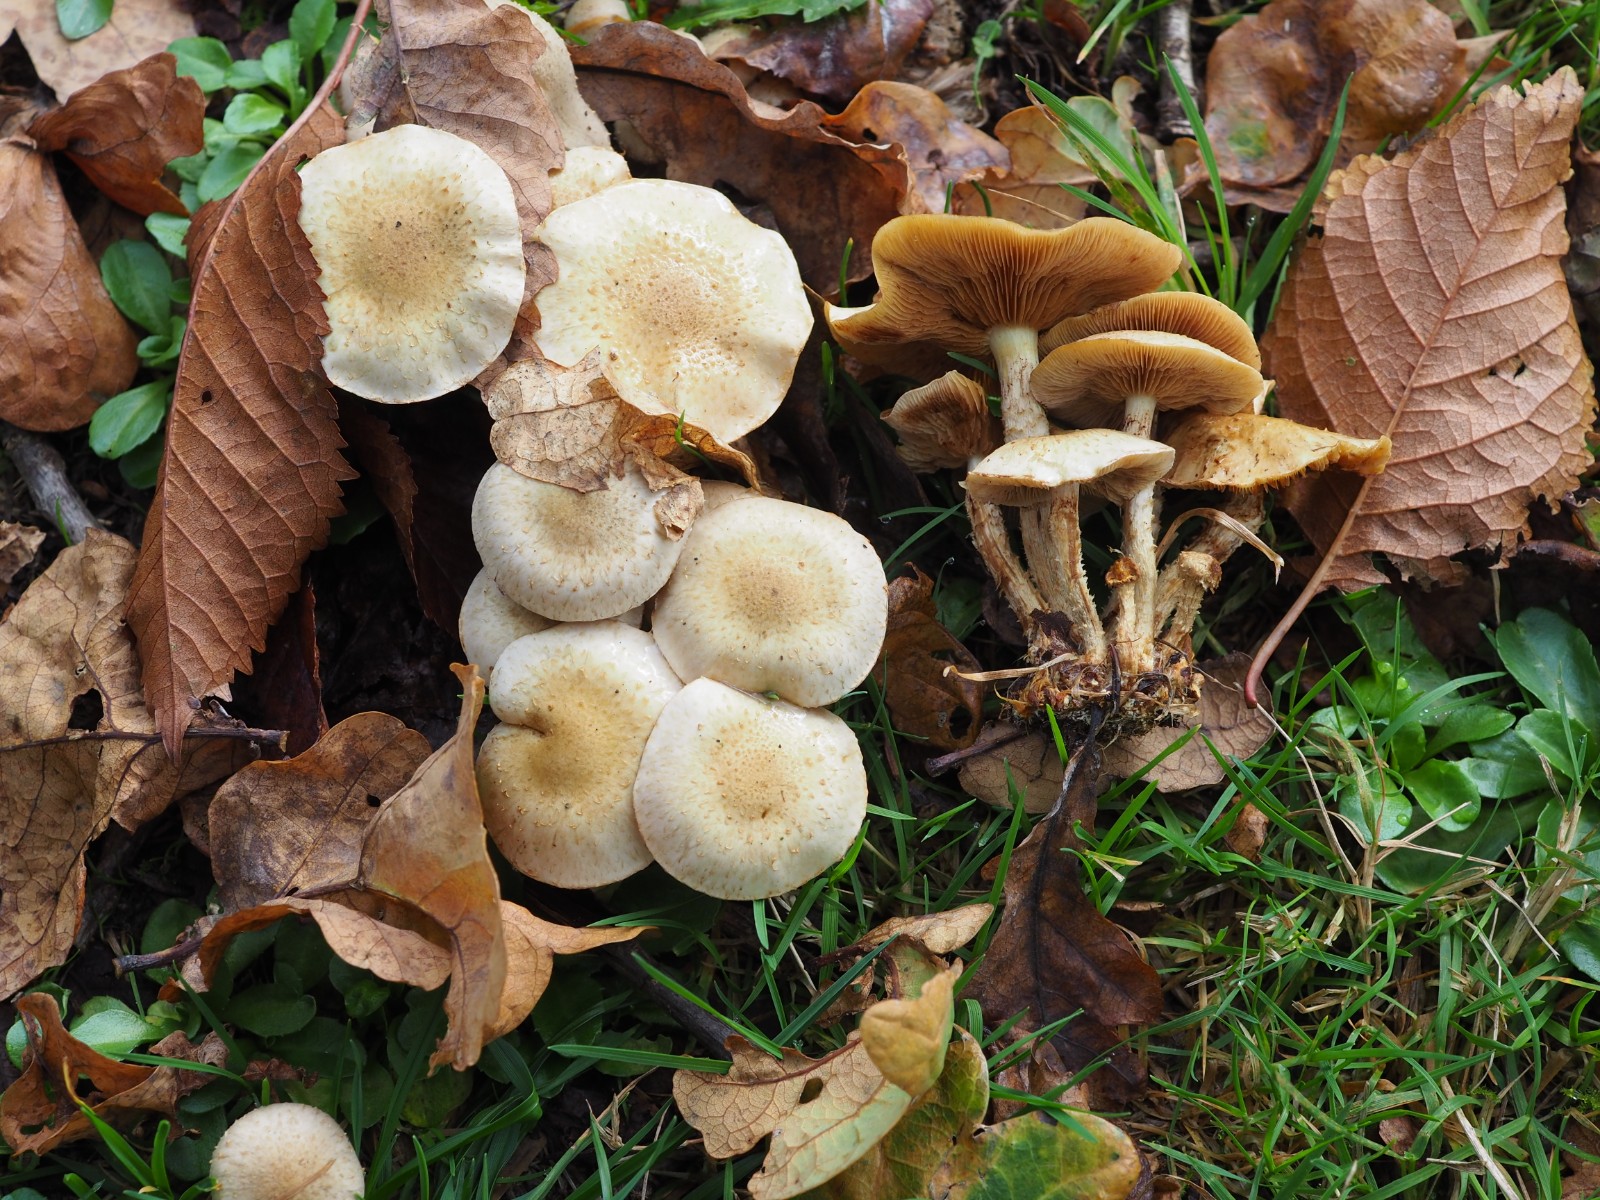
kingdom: Fungi
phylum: Basidiomycota
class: Agaricomycetes
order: Agaricales
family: Strophariaceae
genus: Pholiota
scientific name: Pholiota gummosa
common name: grøngul skælhat
